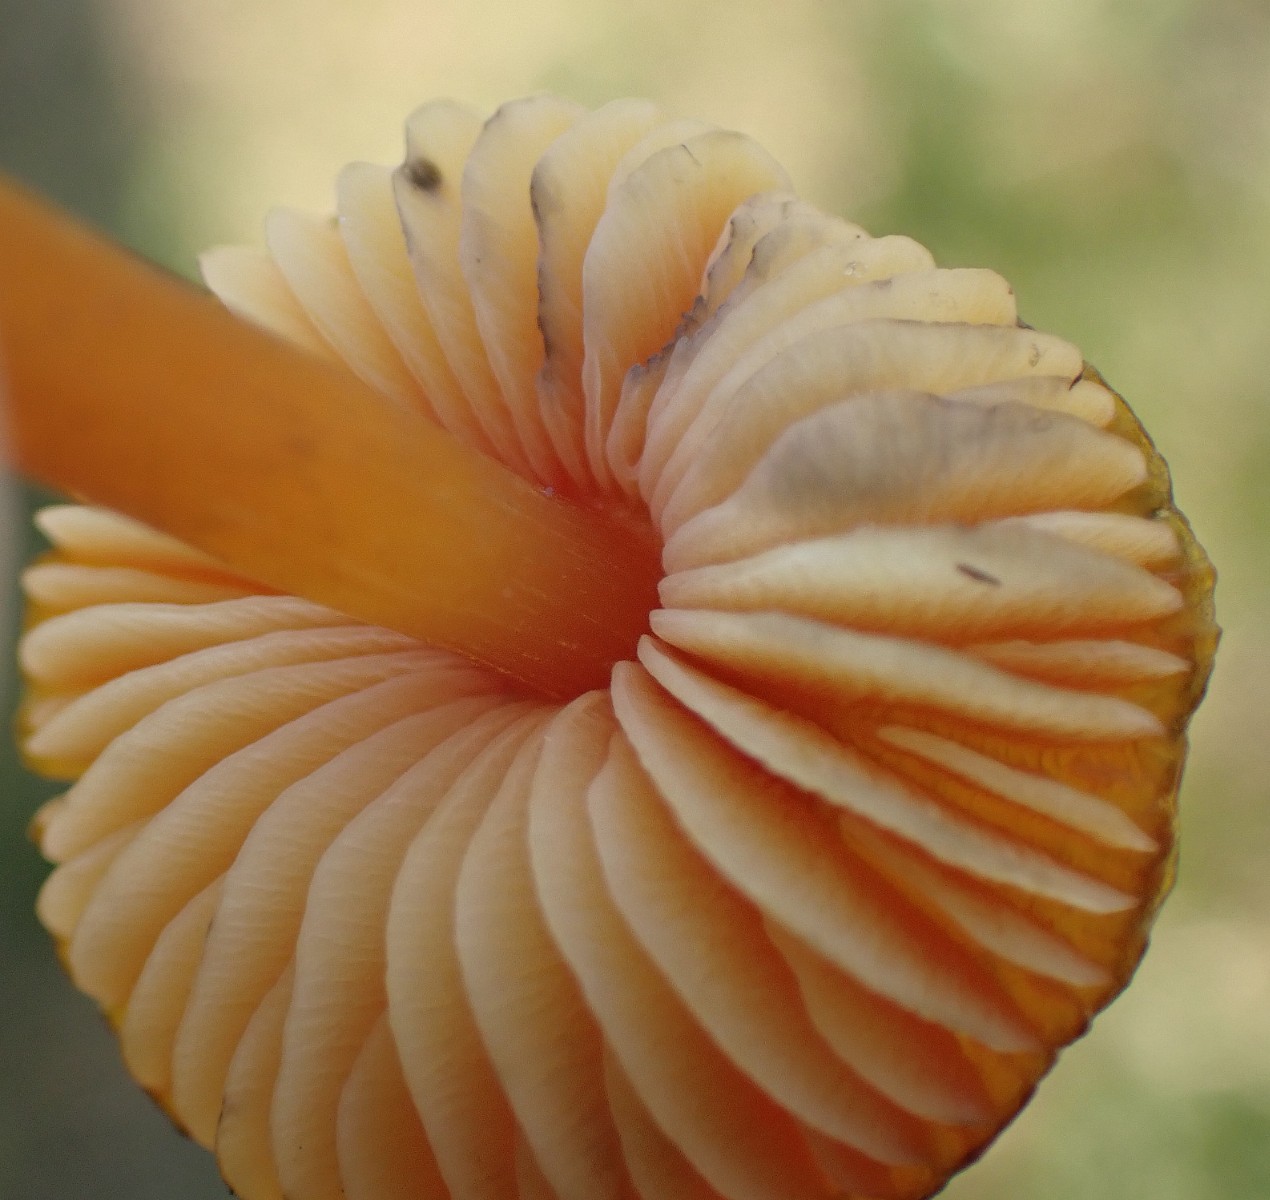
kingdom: Fungi
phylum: Basidiomycota
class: Agaricomycetes
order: Agaricales
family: Hygrophoraceae
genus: Hygrocybe
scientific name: Hygrocybe conica
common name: kegle-vokshat
